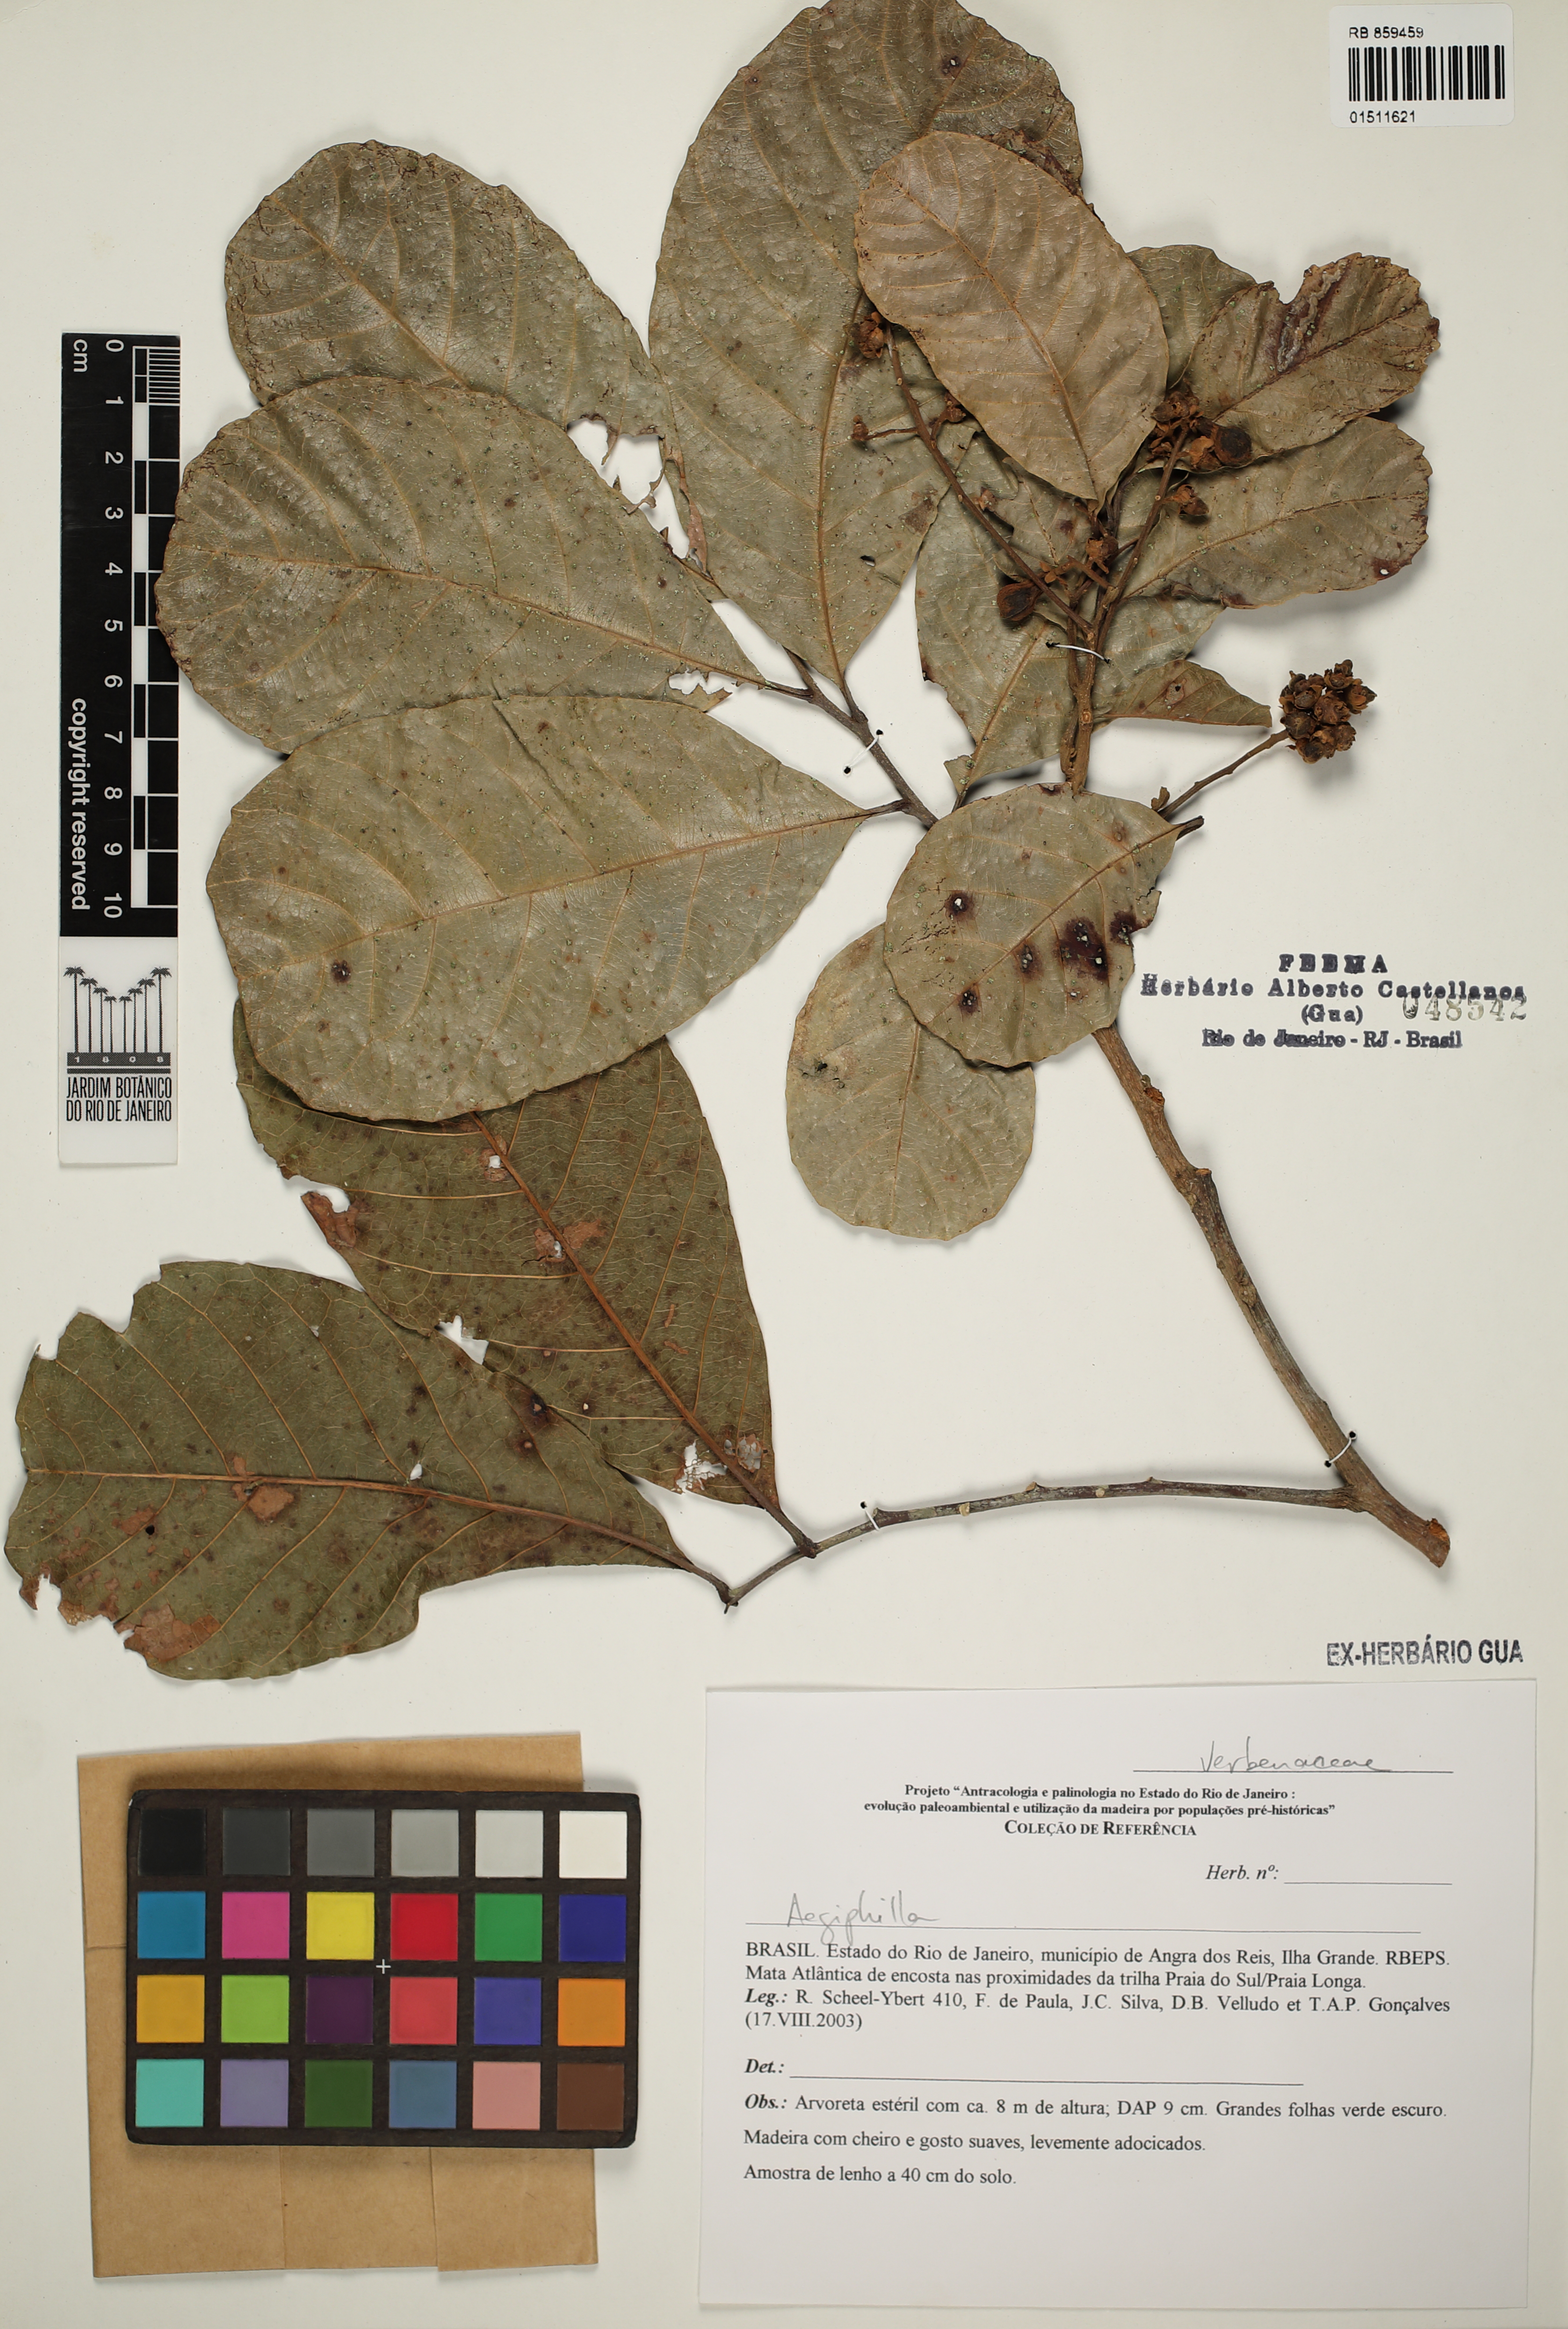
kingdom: Plantae
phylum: Tracheophyta
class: Magnoliopsida
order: Lamiales
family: Lamiaceae
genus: Aegiphila
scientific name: Aegiphila
